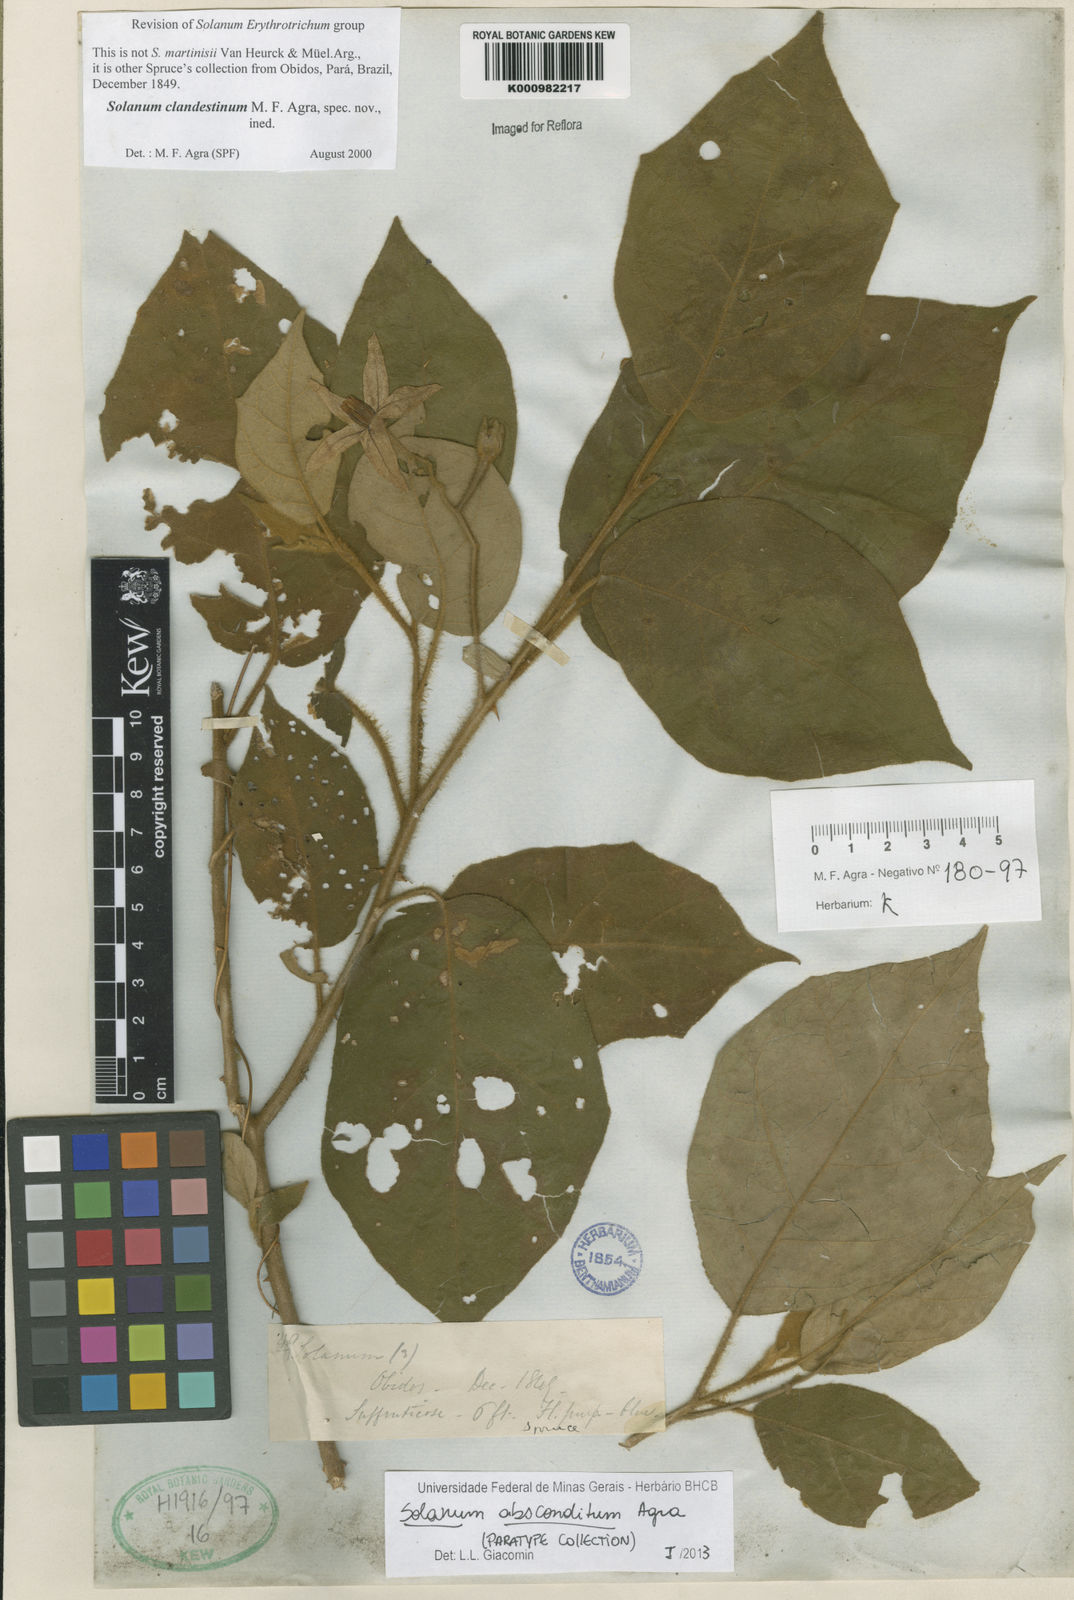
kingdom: Plantae
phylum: Tracheophyta
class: Magnoliopsida
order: Solanales
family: Solanaceae
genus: Solanum
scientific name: Solanum absconditum
